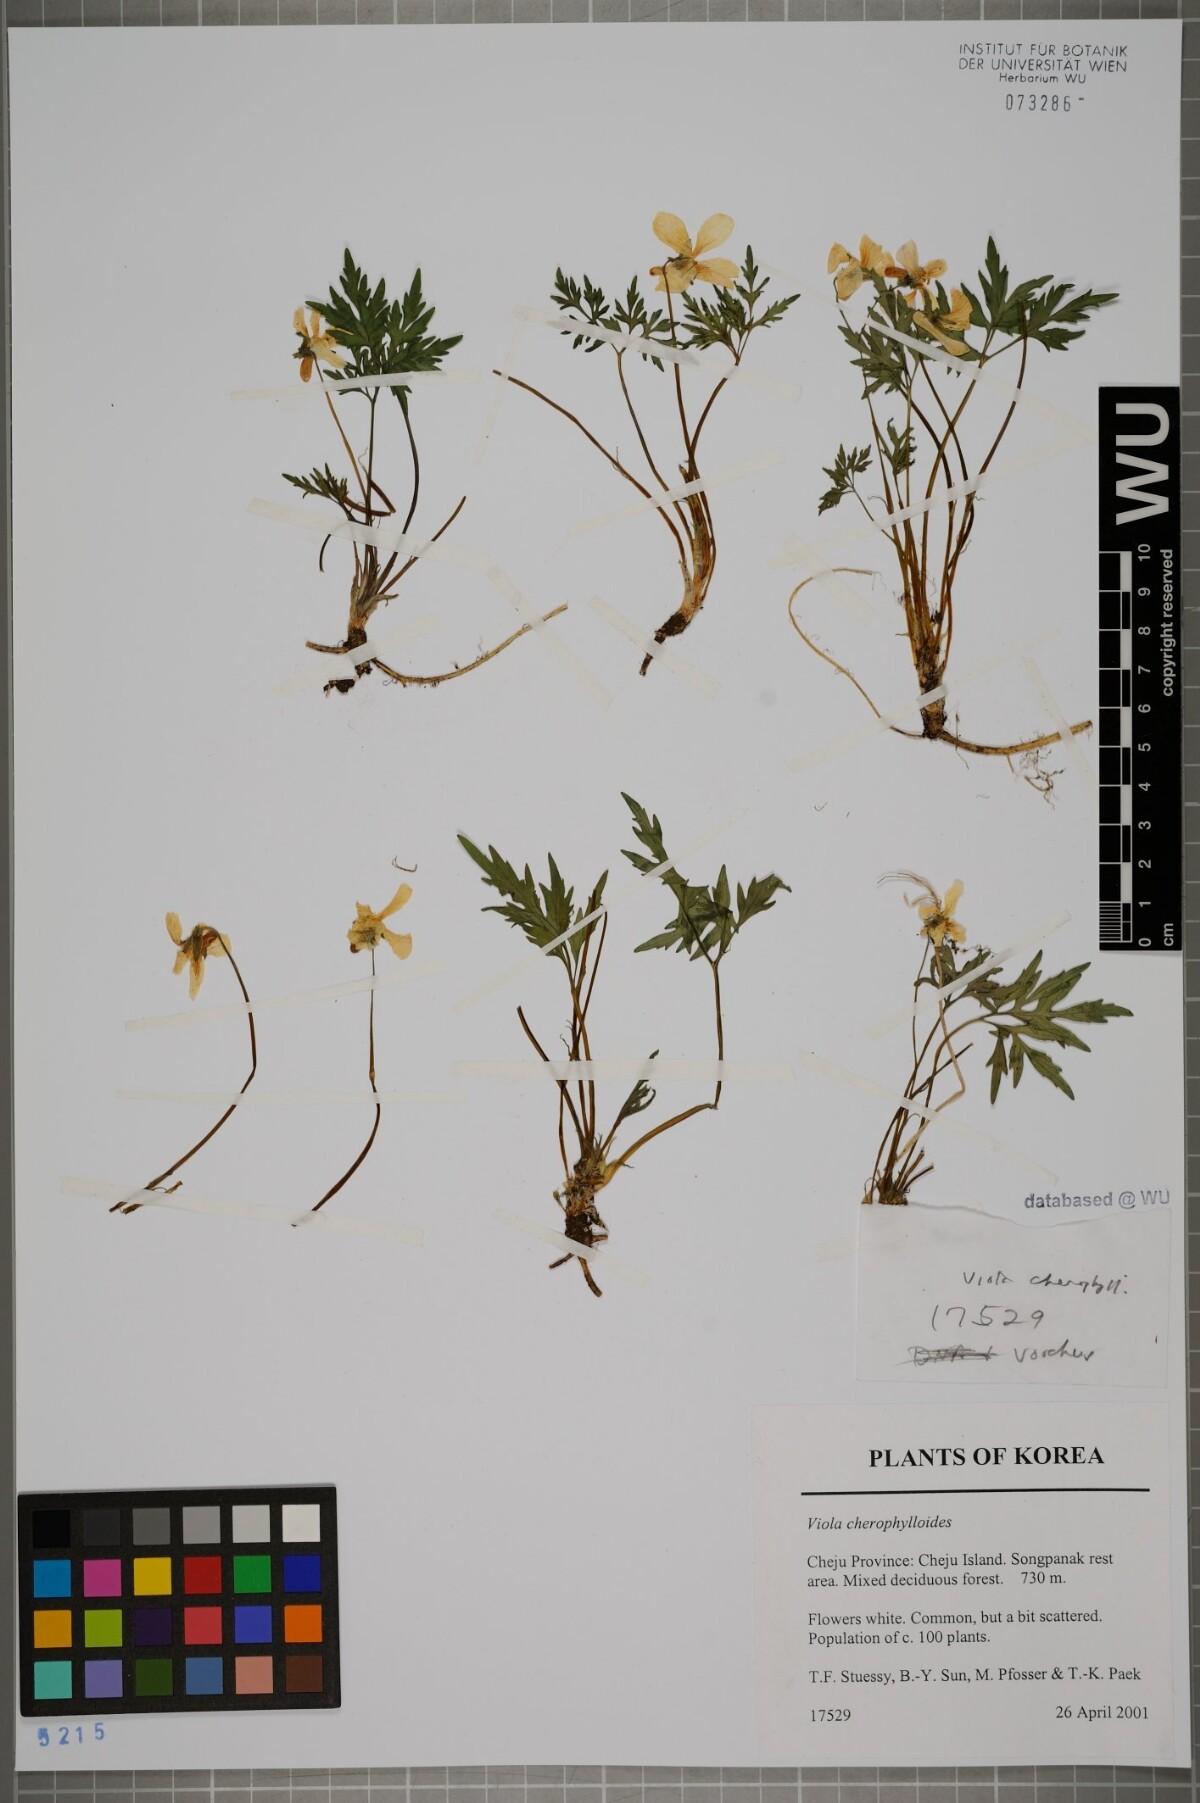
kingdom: Plantae
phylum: Tracheophyta
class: Magnoliopsida
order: Malpighiales
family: Violaceae
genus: Viola
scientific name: Viola albida
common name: Korean violet
